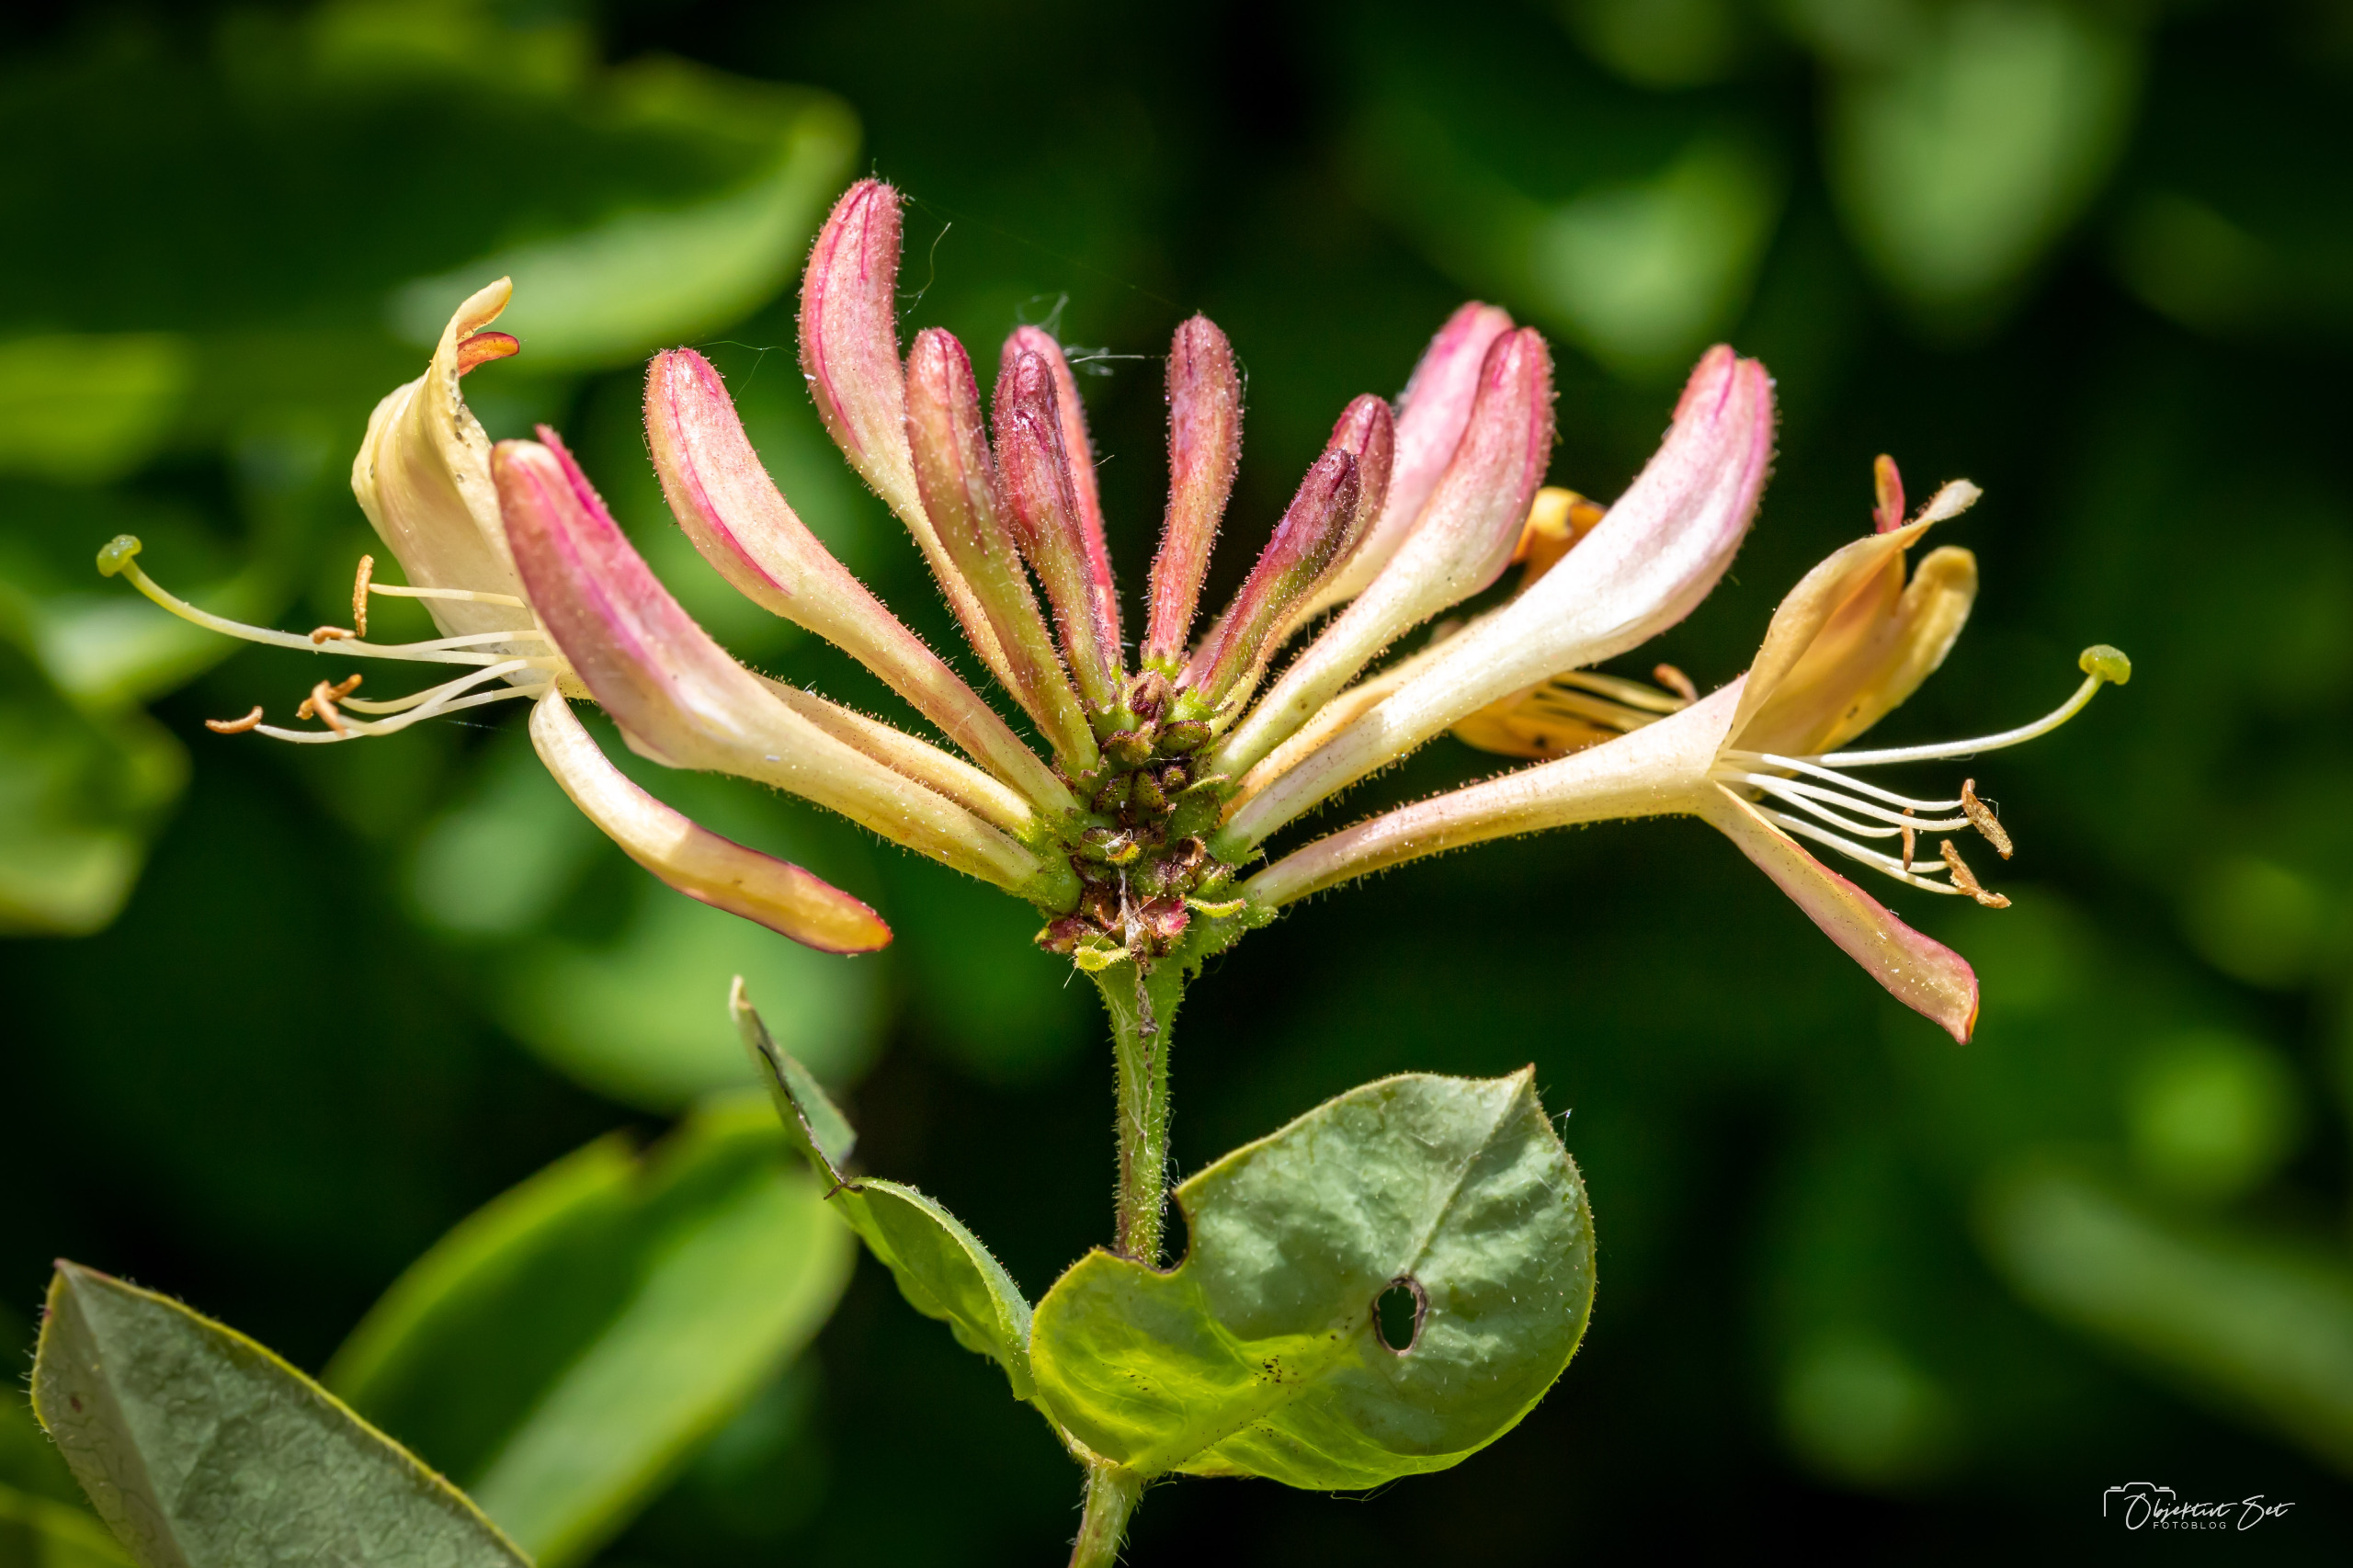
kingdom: Plantae
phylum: Tracheophyta
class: Magnoliopsida
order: Dipsacales
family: Caprifoliaceae
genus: Lonicera
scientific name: Lonicera periclymenum
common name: Almindelig gedeblad
